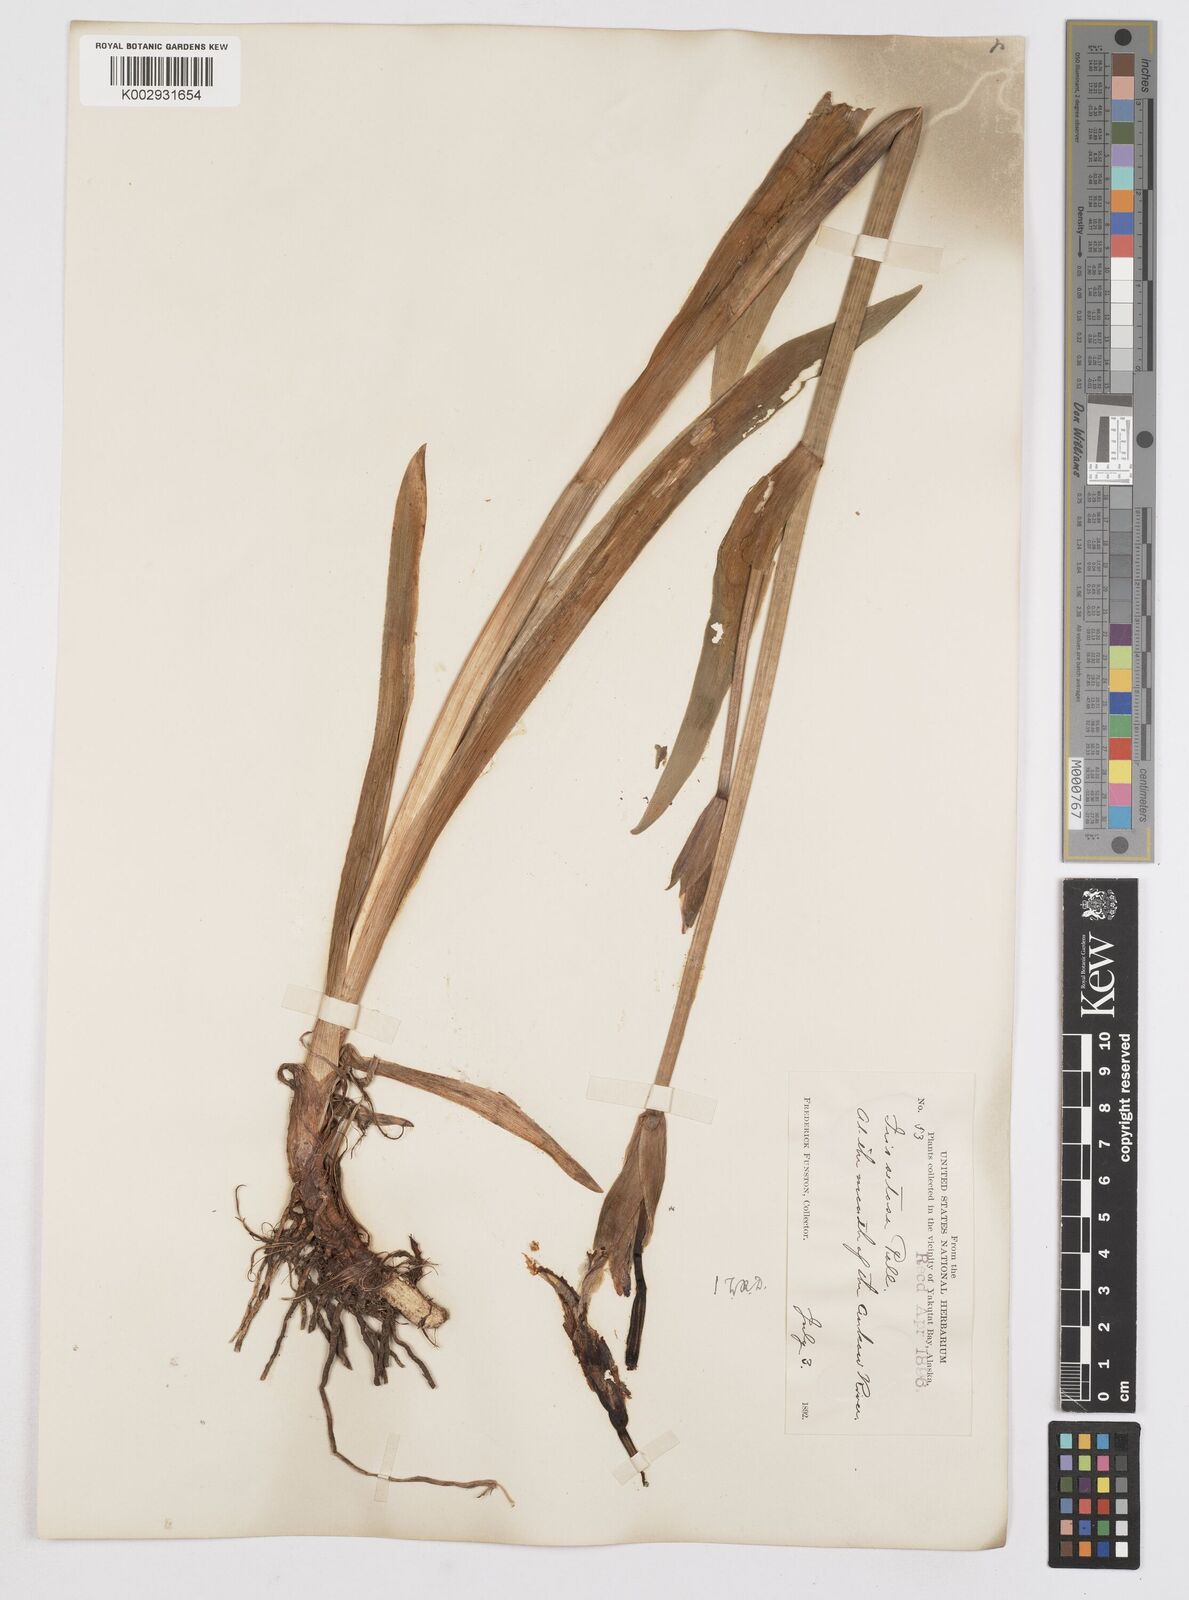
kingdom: Plantae
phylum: Tracheophyta
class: Liliopsida
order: Asparagales
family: Iridaceae
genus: Iris
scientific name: Iris setosa
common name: Arctic blue flag
